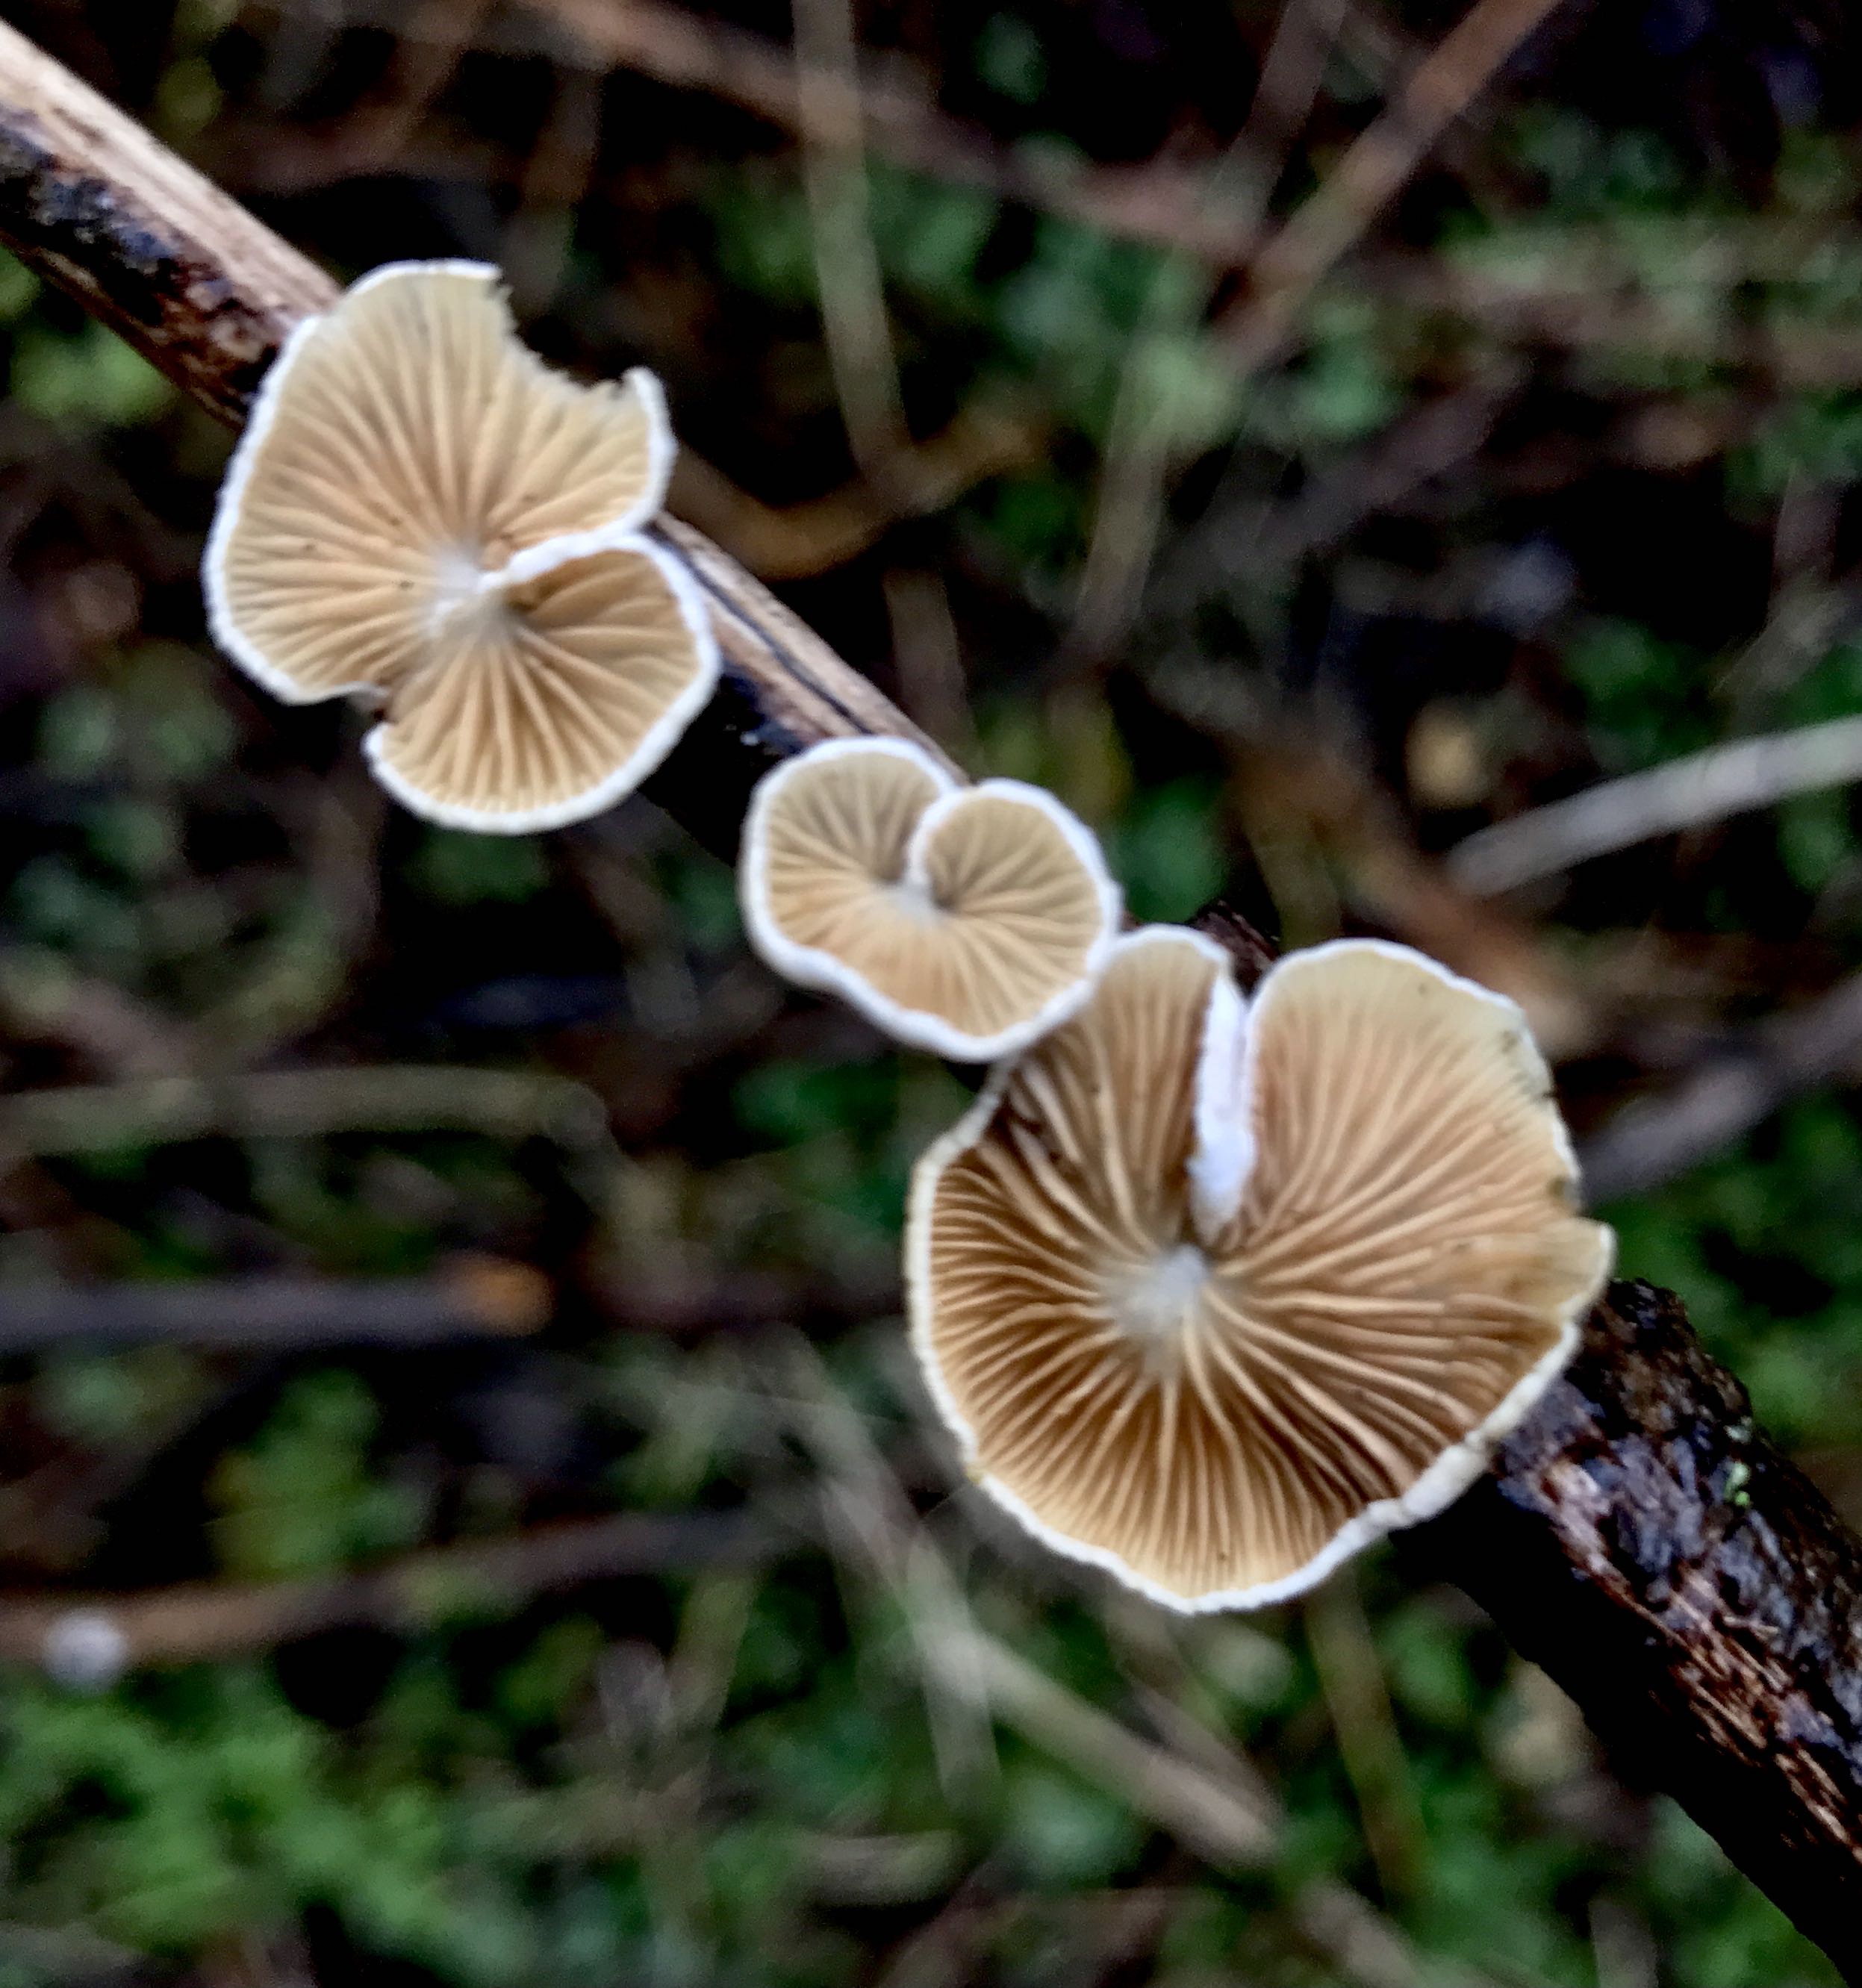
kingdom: Fungi
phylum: Basidiomycota
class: Agaricomycetes
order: Agaricales
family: Crepidotaceae
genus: Crepidotus
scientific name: Crepidotus
